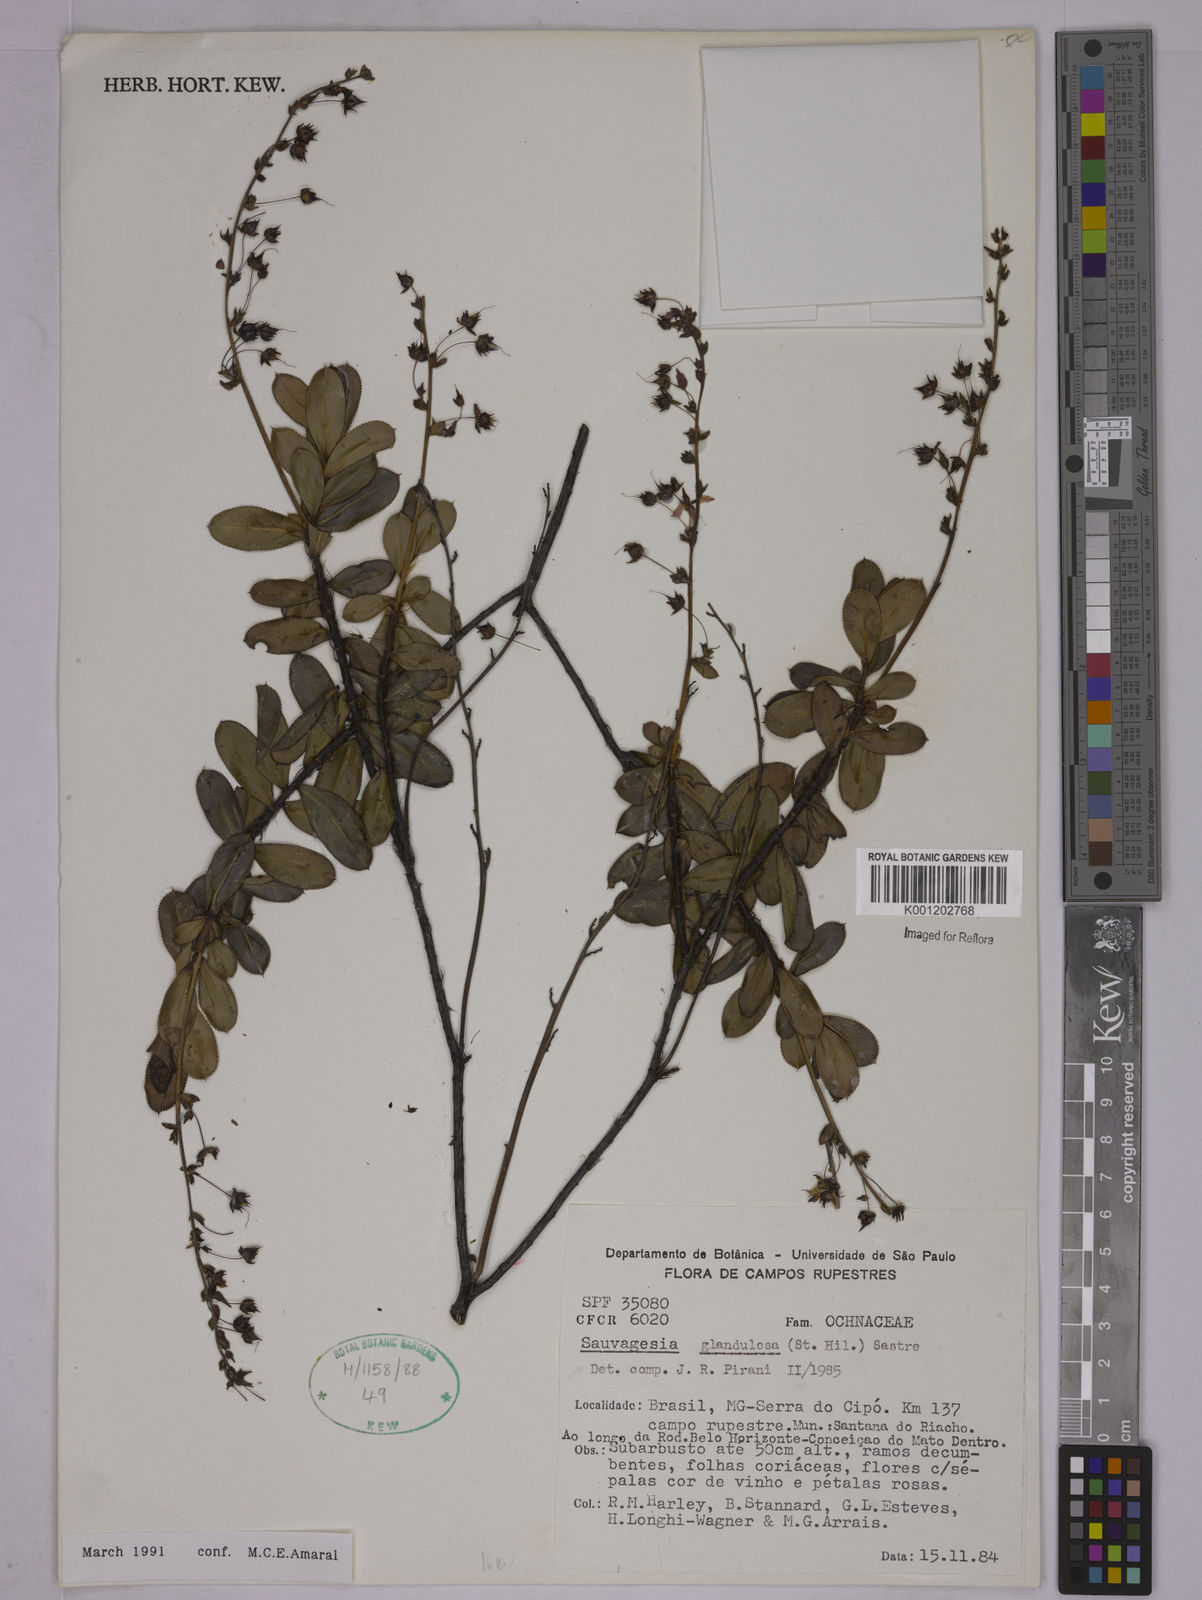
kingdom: Plantae
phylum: Tracheophyta
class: Magnoliopsida
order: Malpighiales
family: Ochnaceae
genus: Sauvagesia
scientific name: Sauvagesia elegantissima
